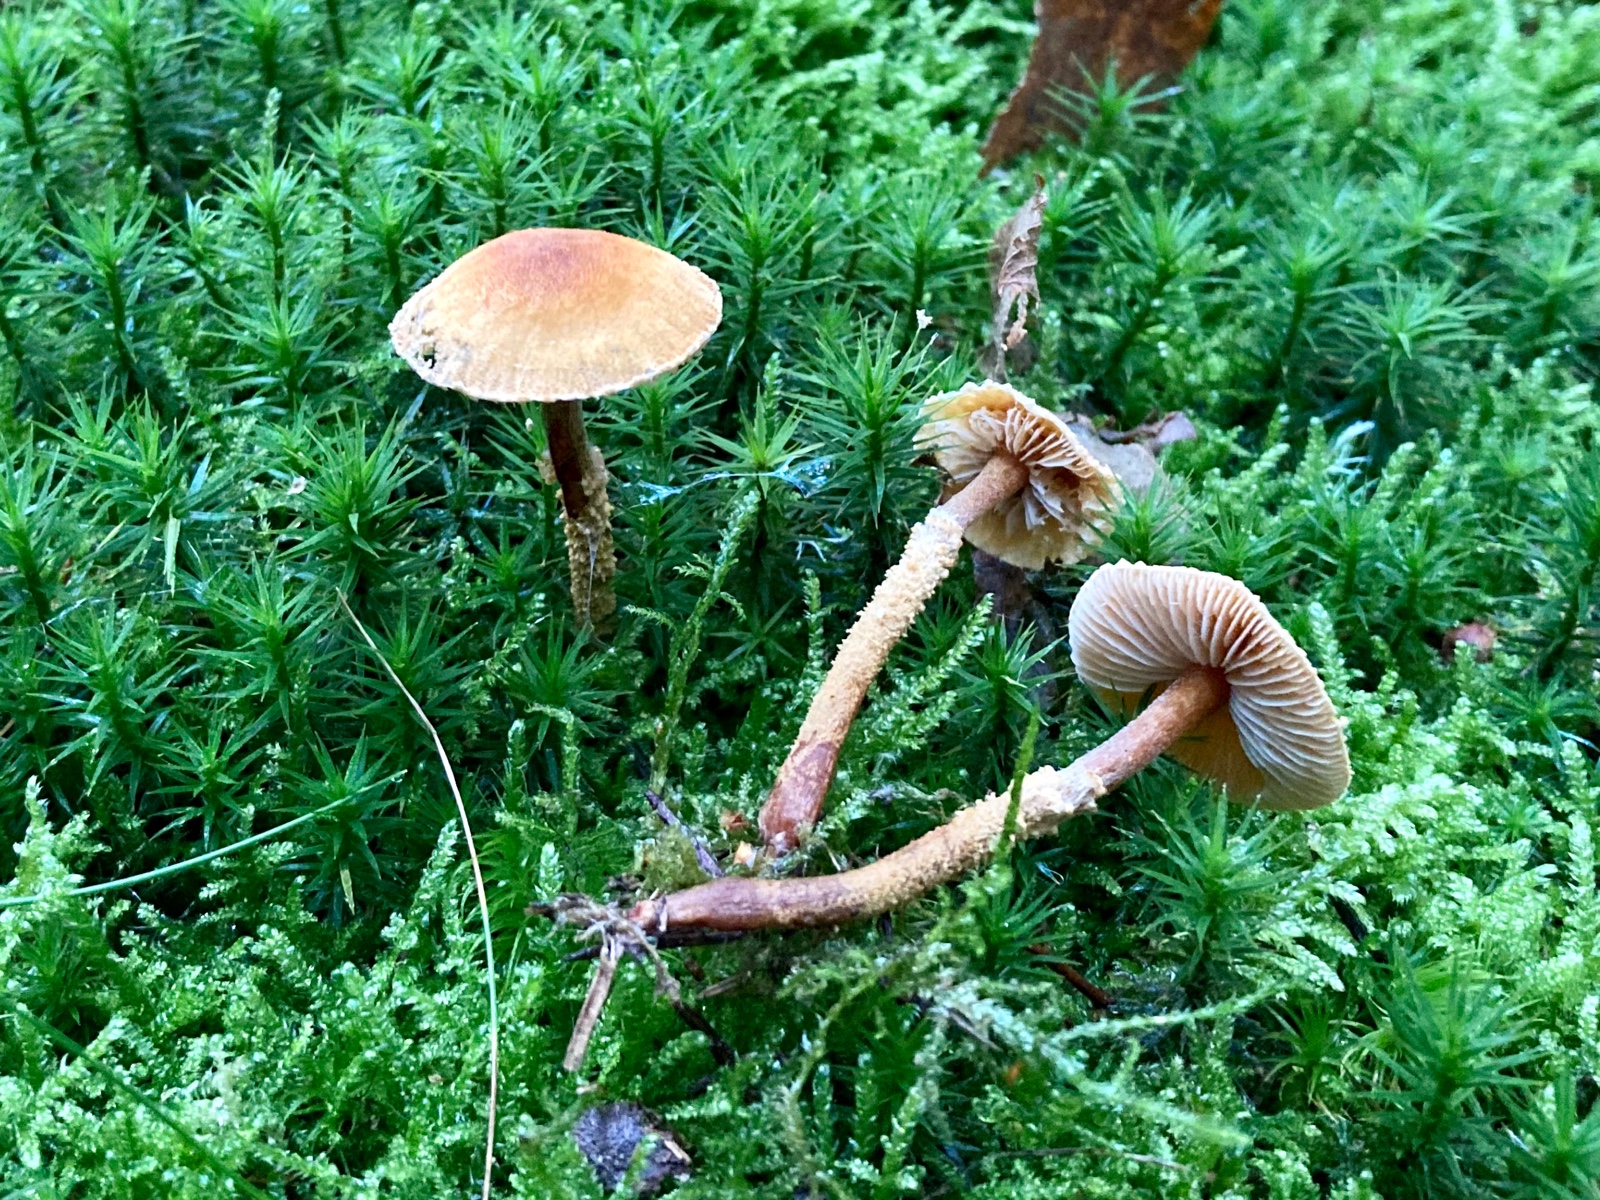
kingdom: Fungi
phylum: Basidiomycota
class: Agaricomycetes
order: Agaricales
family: Tricholomataceae
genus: Cystoderma
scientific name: Cystoderma amianthinum
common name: okkergul grynhat
